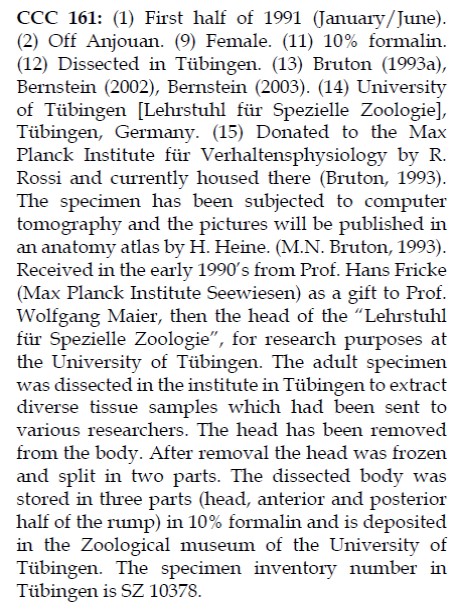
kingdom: Animalia
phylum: Chordata
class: Coelacanthi
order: Coelacanthiformes
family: Latimeriidae
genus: Latimeria
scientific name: Latimeria chalumnae
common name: Coelacanth
